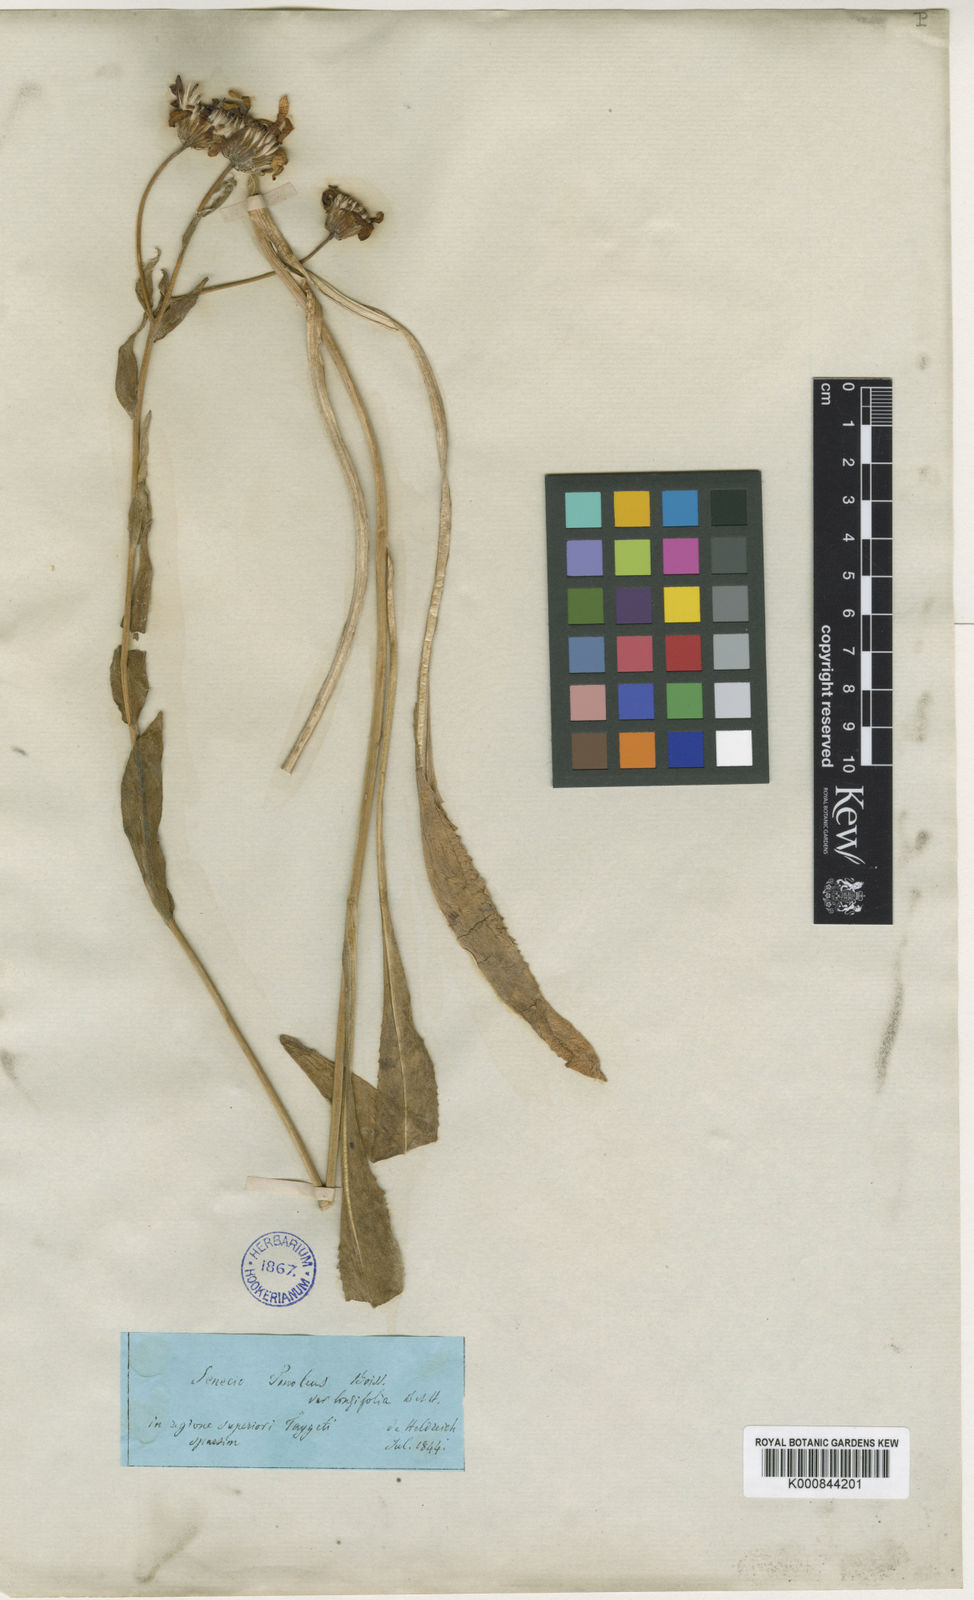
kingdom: Plantae
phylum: Tracheophyta
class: Magnoliopsida
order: Asterales
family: Asteraceae
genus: Senecio
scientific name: Senecio macedonicus
